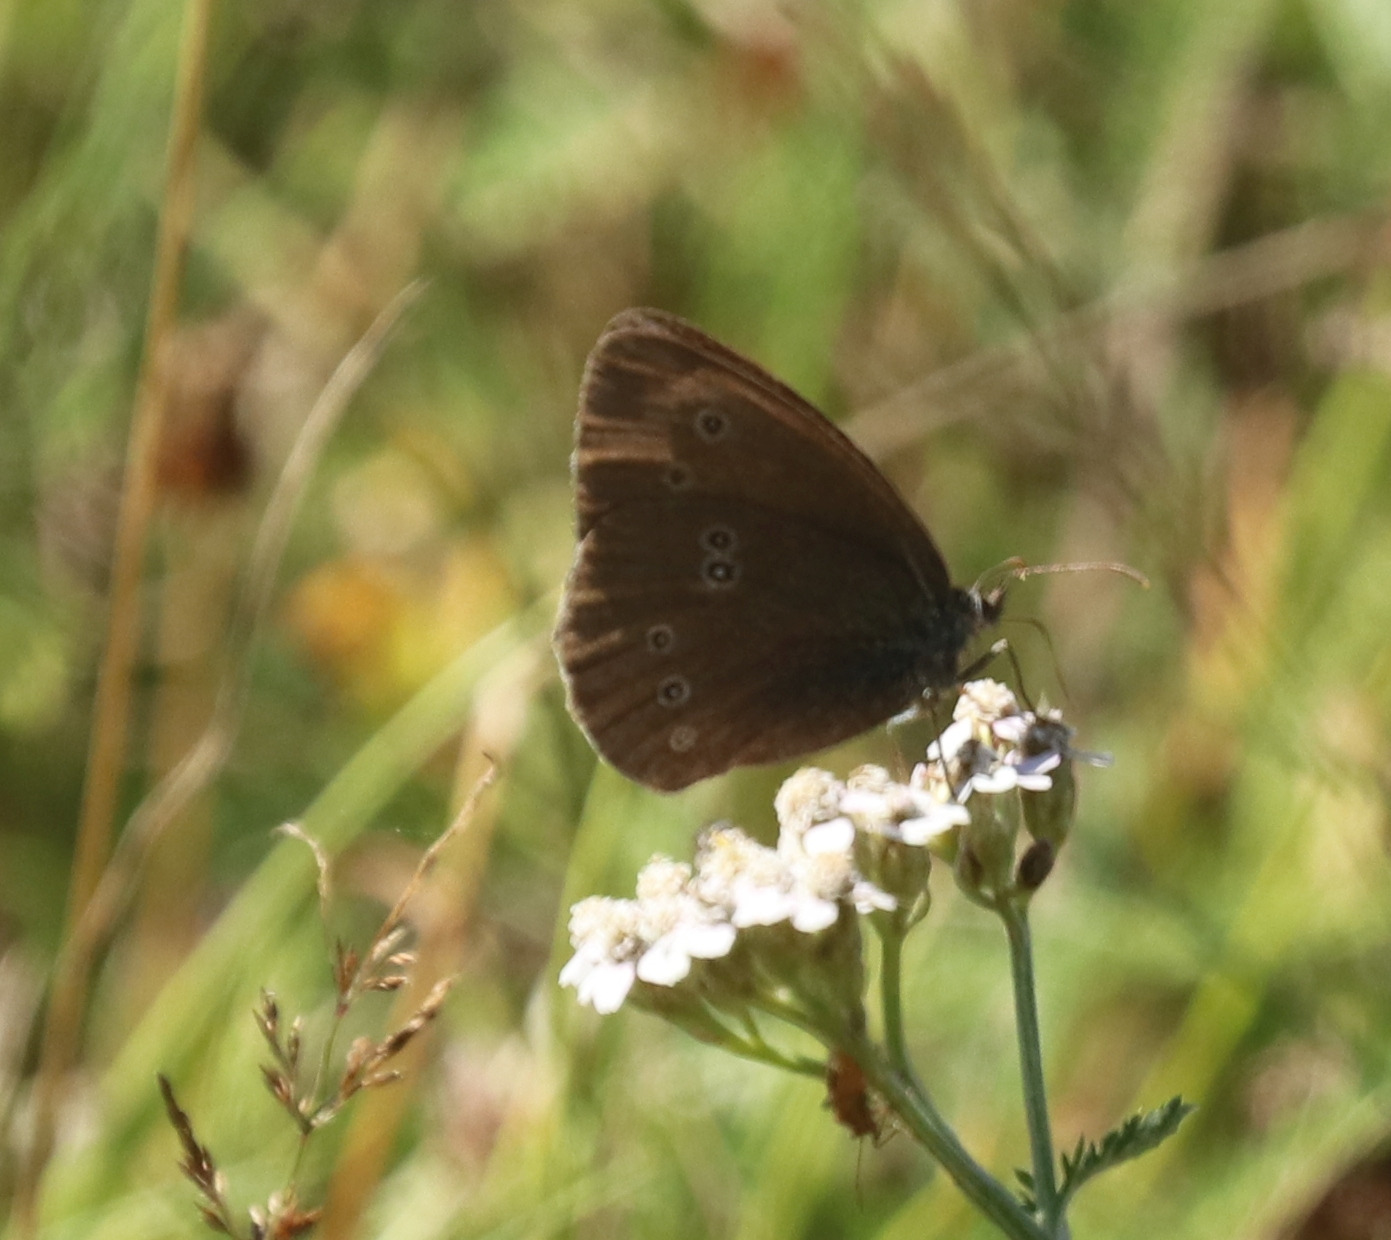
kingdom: Animalia
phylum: Arthropoda
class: Insecta
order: Lepidoptera
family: Nymphalidae
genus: Aphantopus
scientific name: Aphantopus hyperantus
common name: Engrandøje
